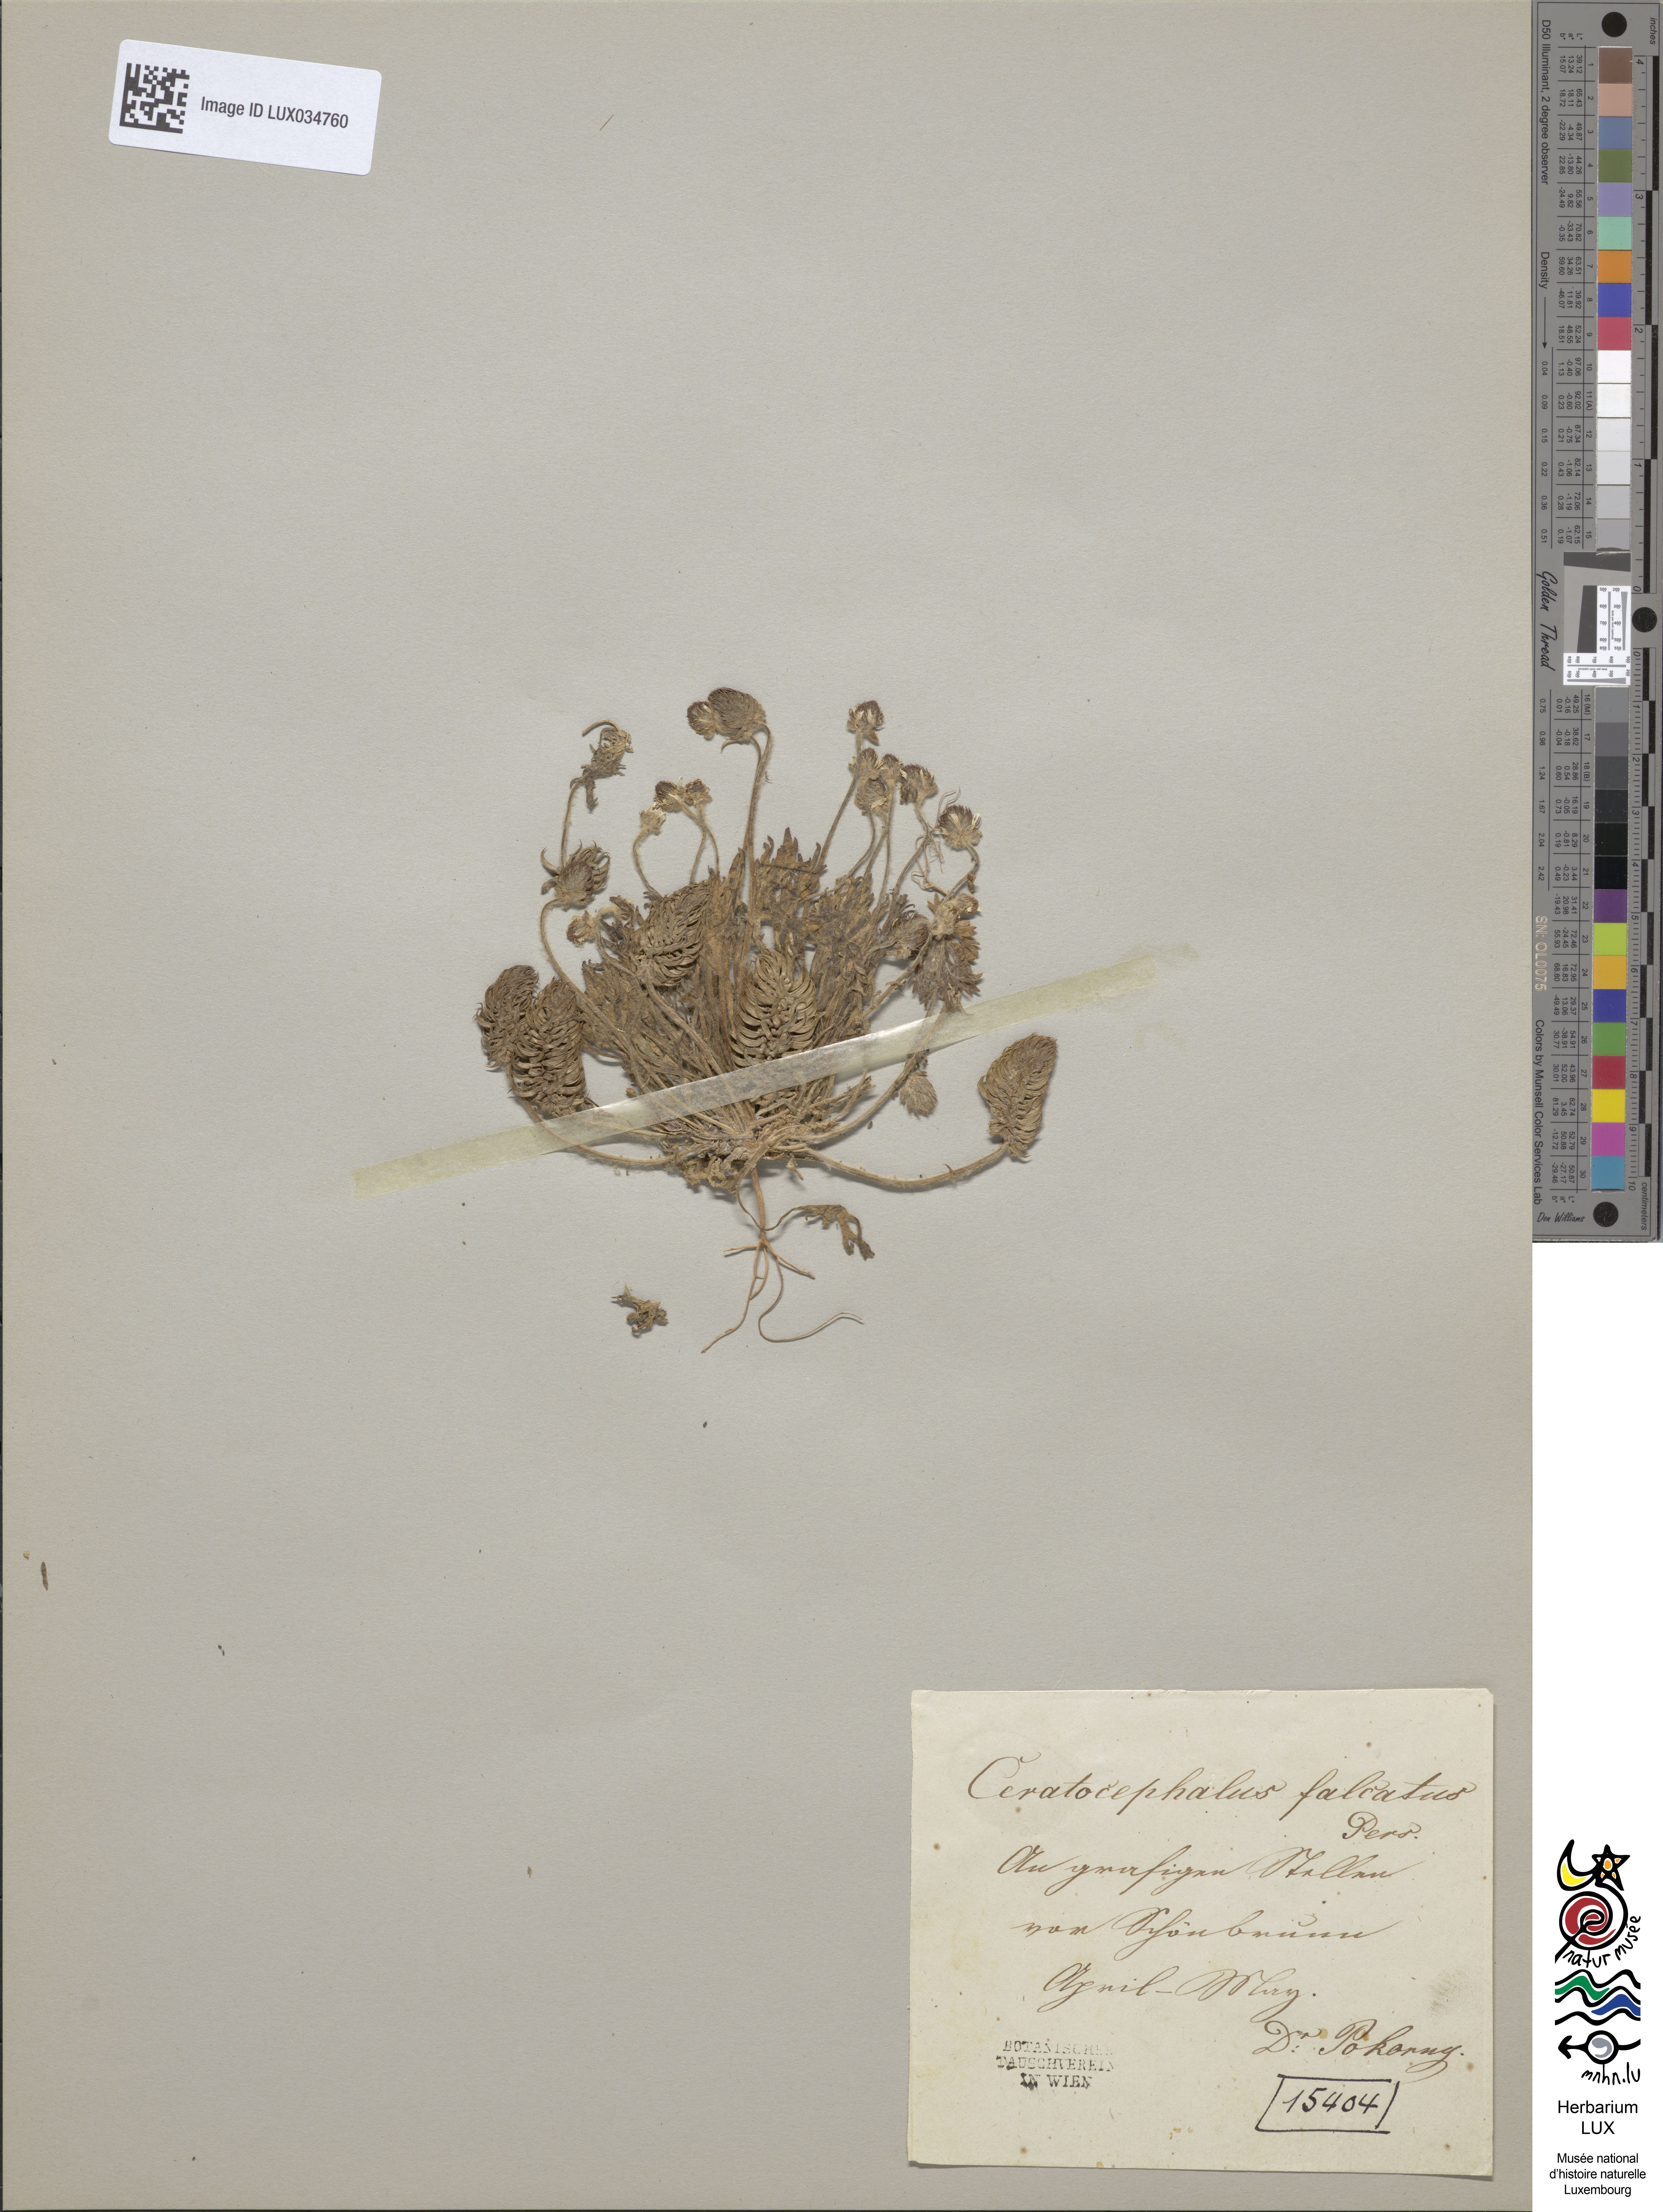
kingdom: Plantae
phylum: Tracheophyta
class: Magnoliopsida
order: Ranunculales
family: Ranunculaceae
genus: Ceratocephala
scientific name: Ceratocephala falcata
